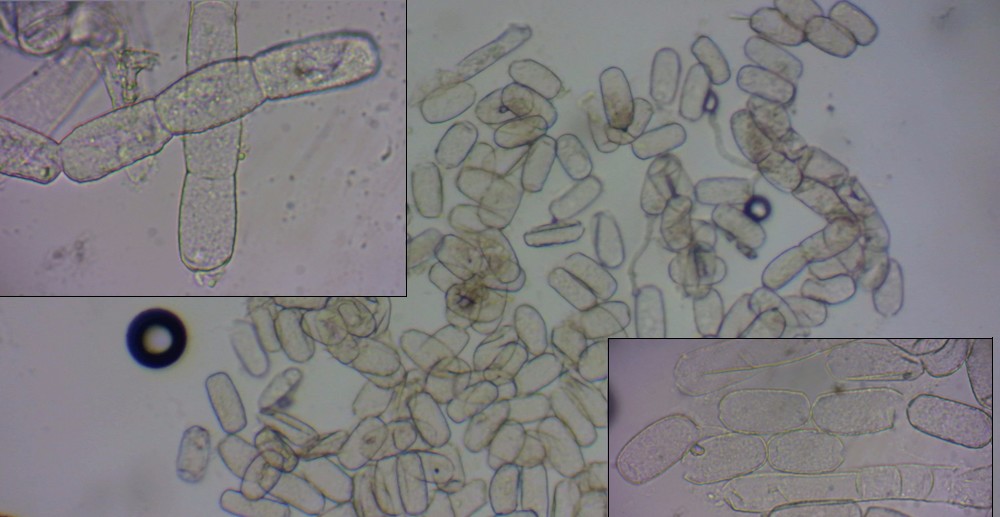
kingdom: Fungi
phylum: Ascomycota
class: Leotiomycetes
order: Helotiales
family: Erysiphaceae
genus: Golovinomyces
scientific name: Golovinomyces sonchicola
